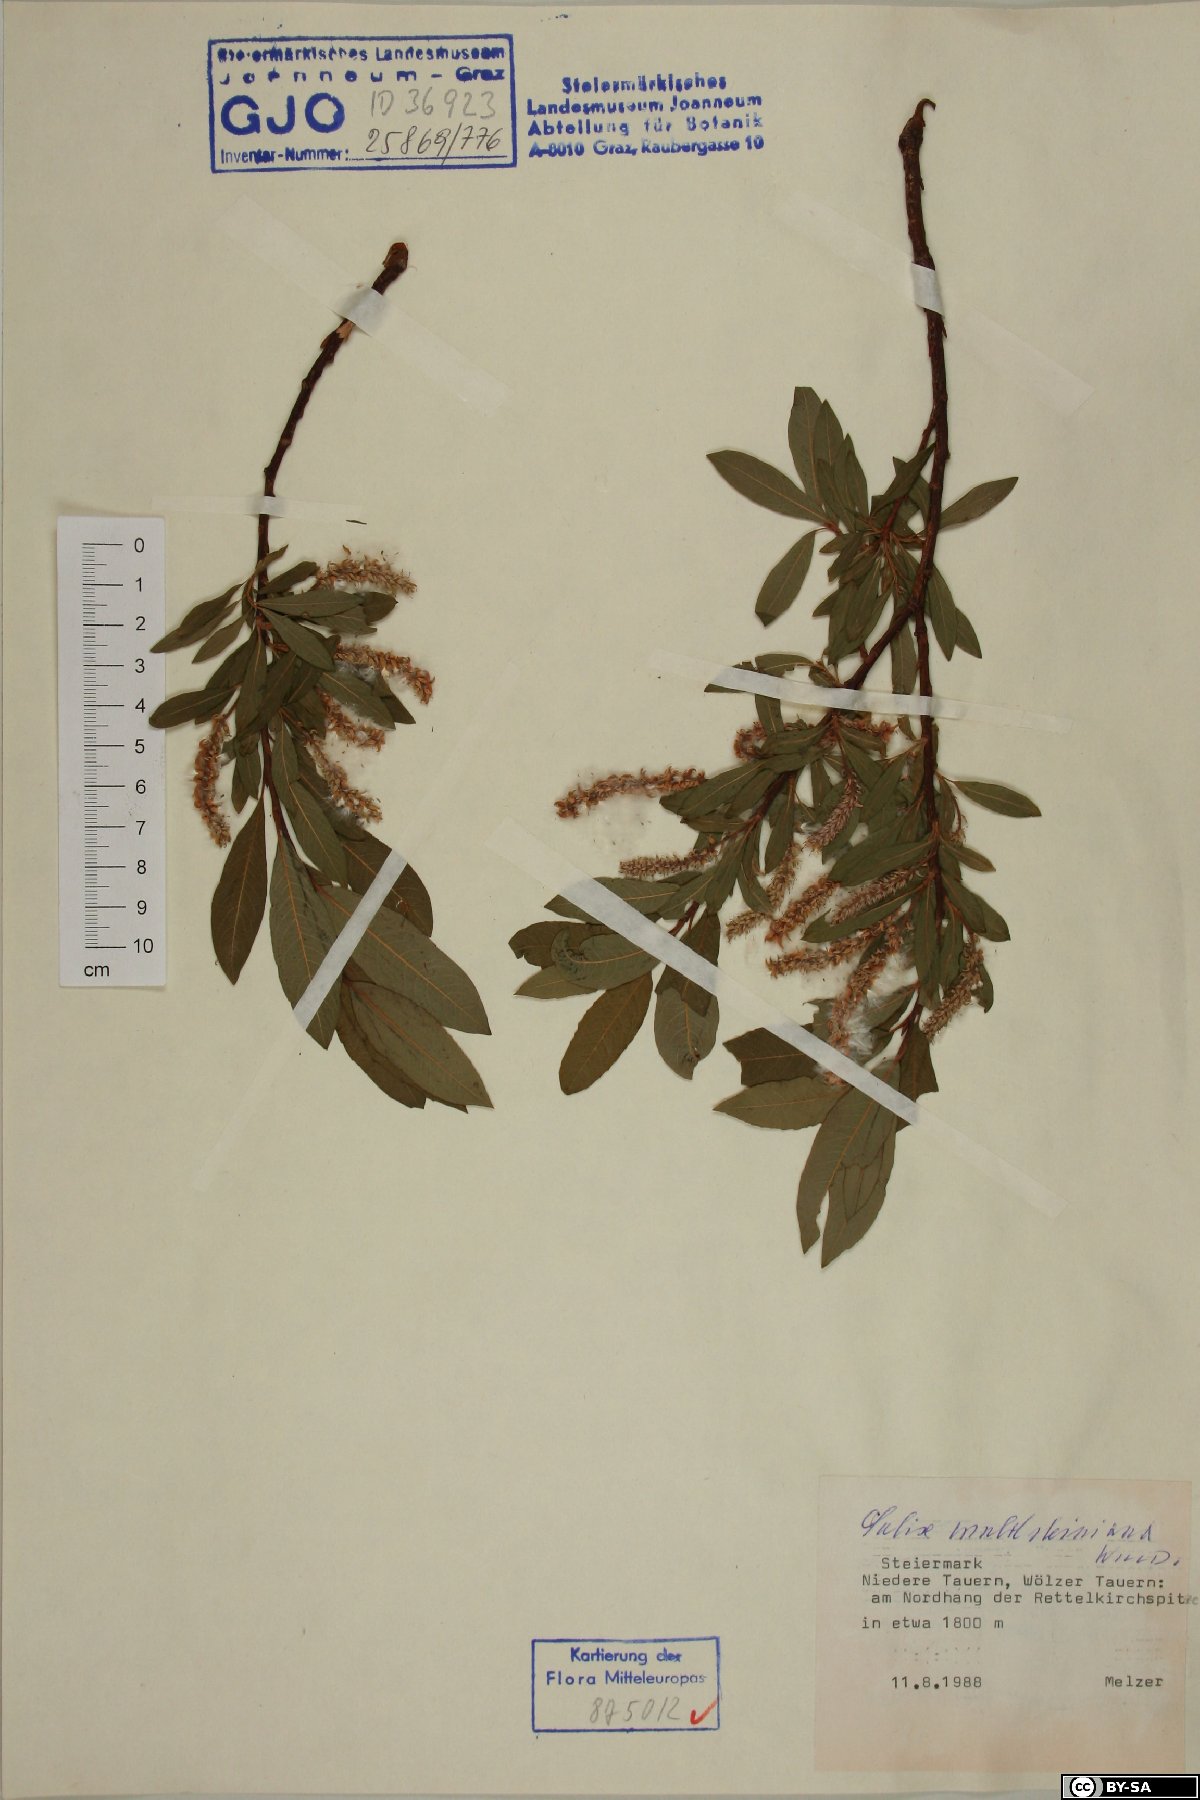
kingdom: Plantae
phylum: Tracheophyta
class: Magnoliopsida
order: Malpighiales
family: Salicaceae
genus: Salix
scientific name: Salix waldsteiniana
